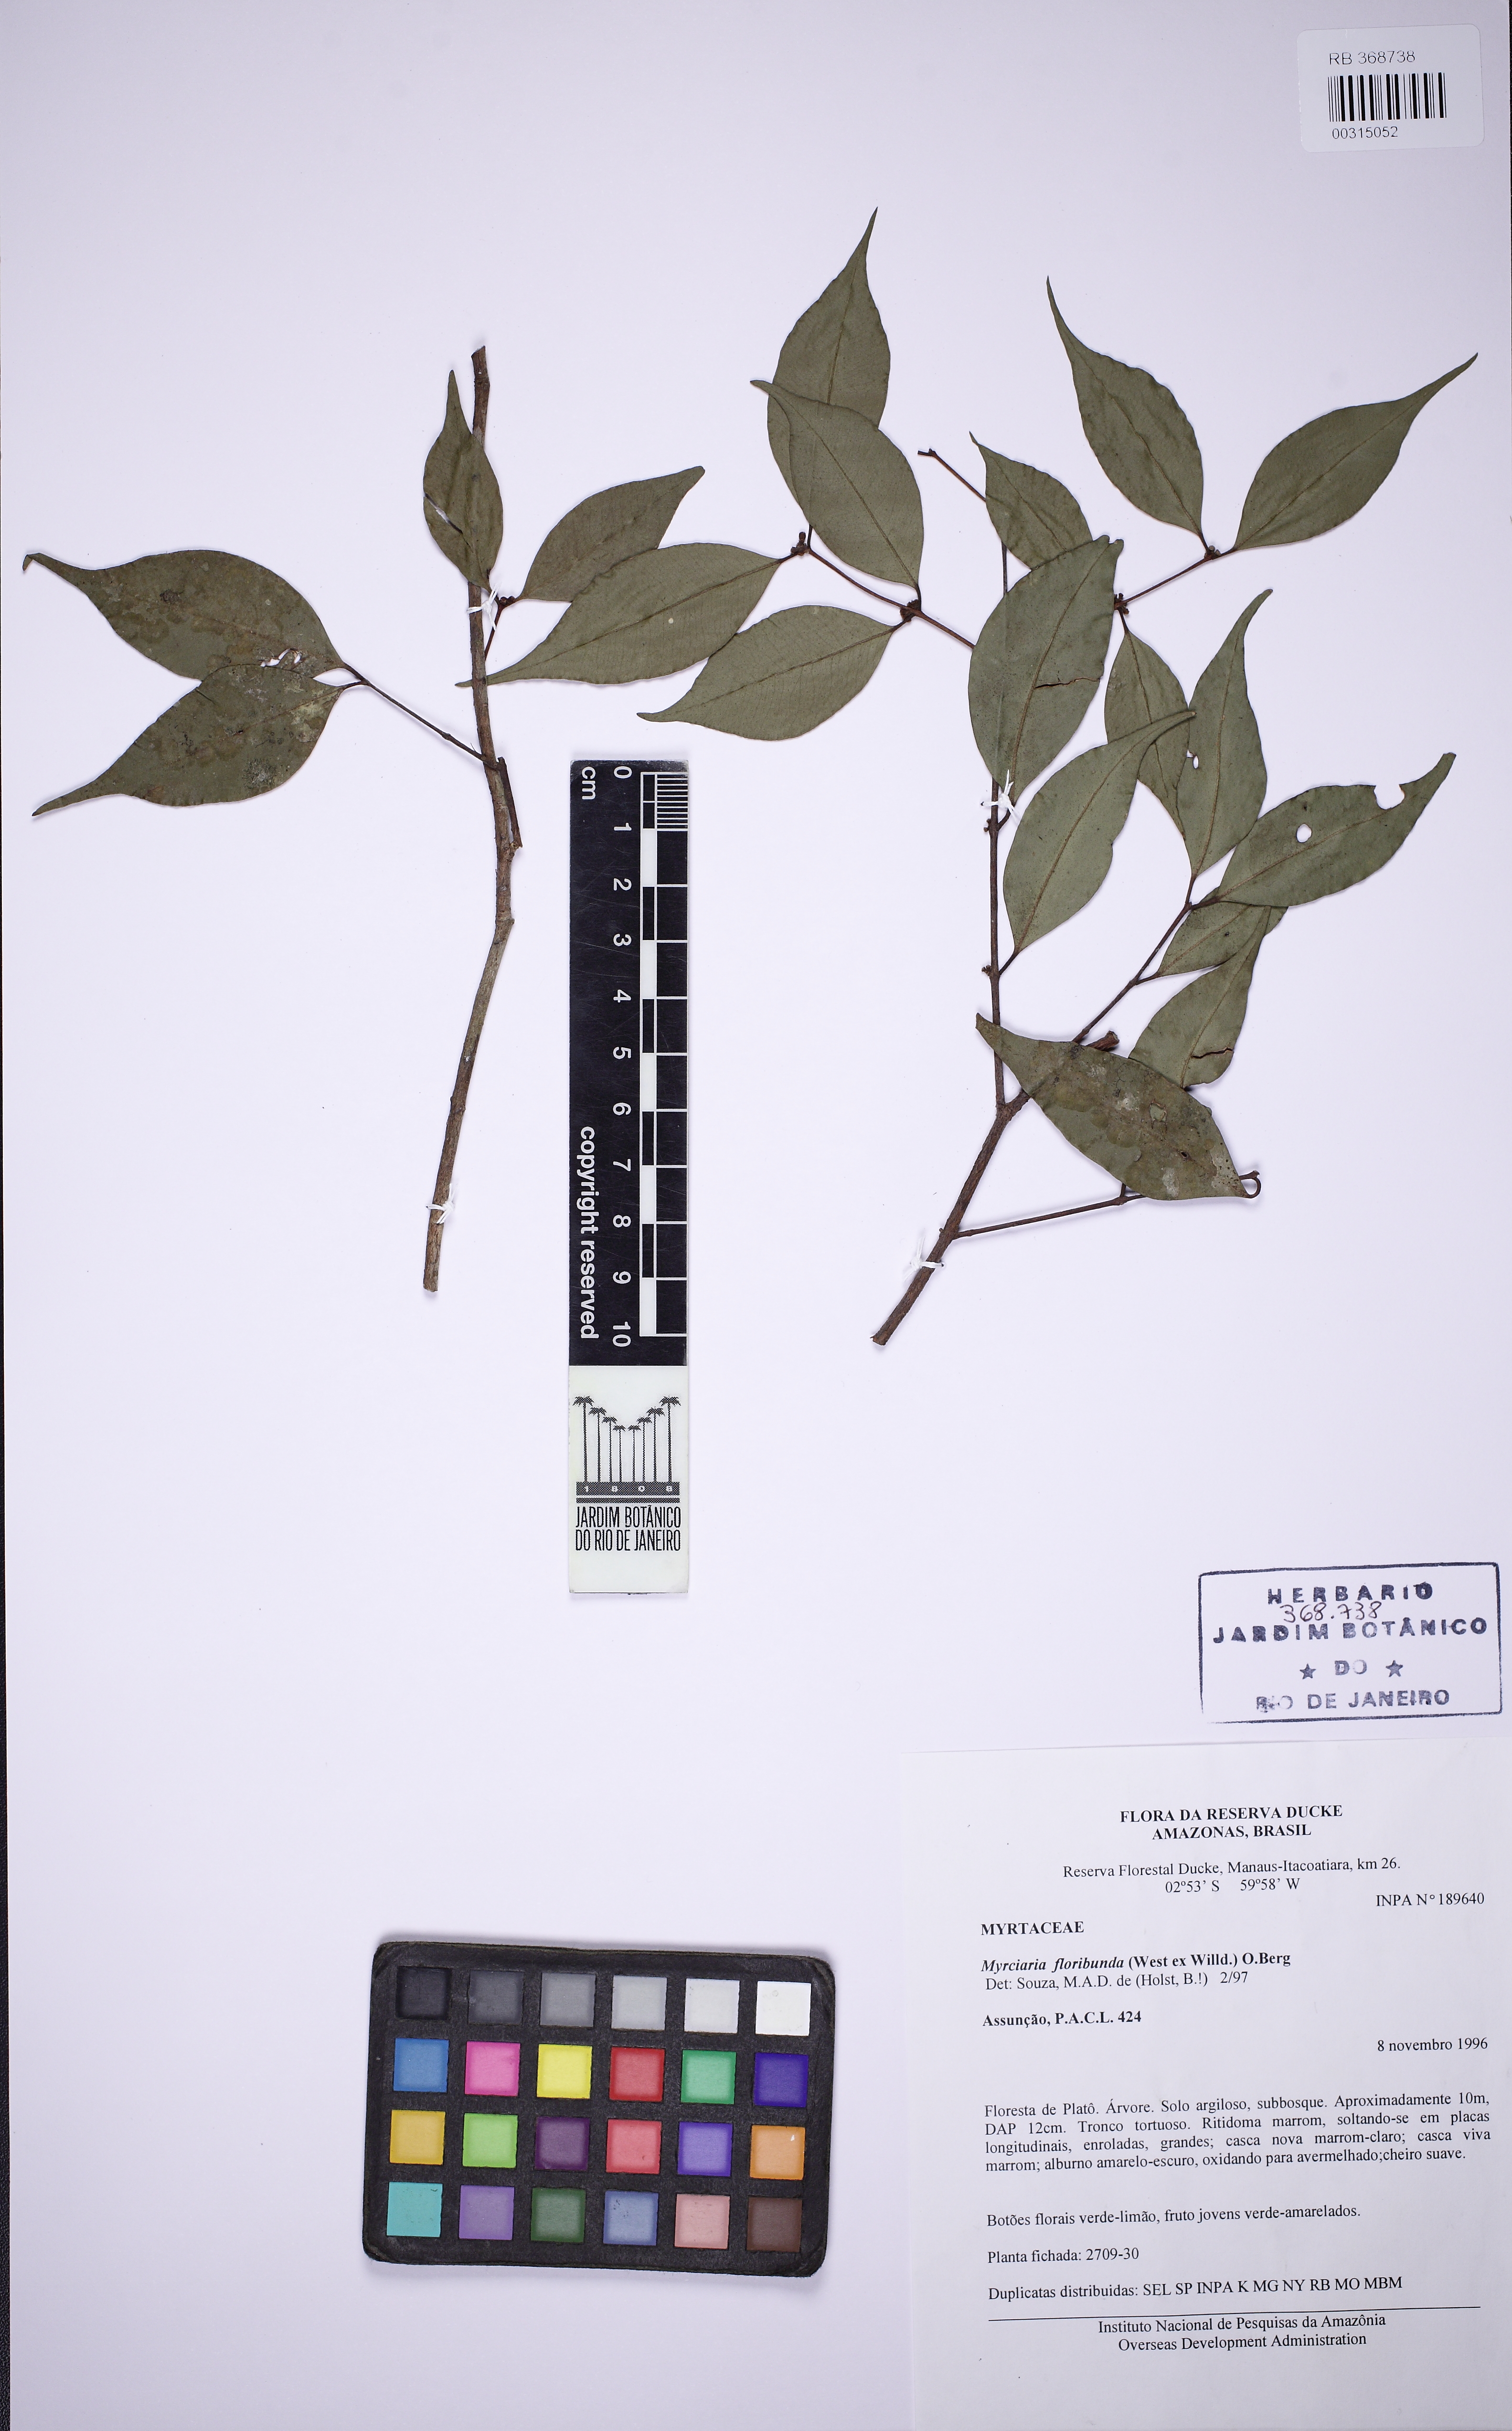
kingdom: Plantae
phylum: Tracheophyta
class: Magnoliopsida
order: Myrtales
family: Myrtaceae
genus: Myrciaria
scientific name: Myrciaria floribunda
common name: Guavaberry
